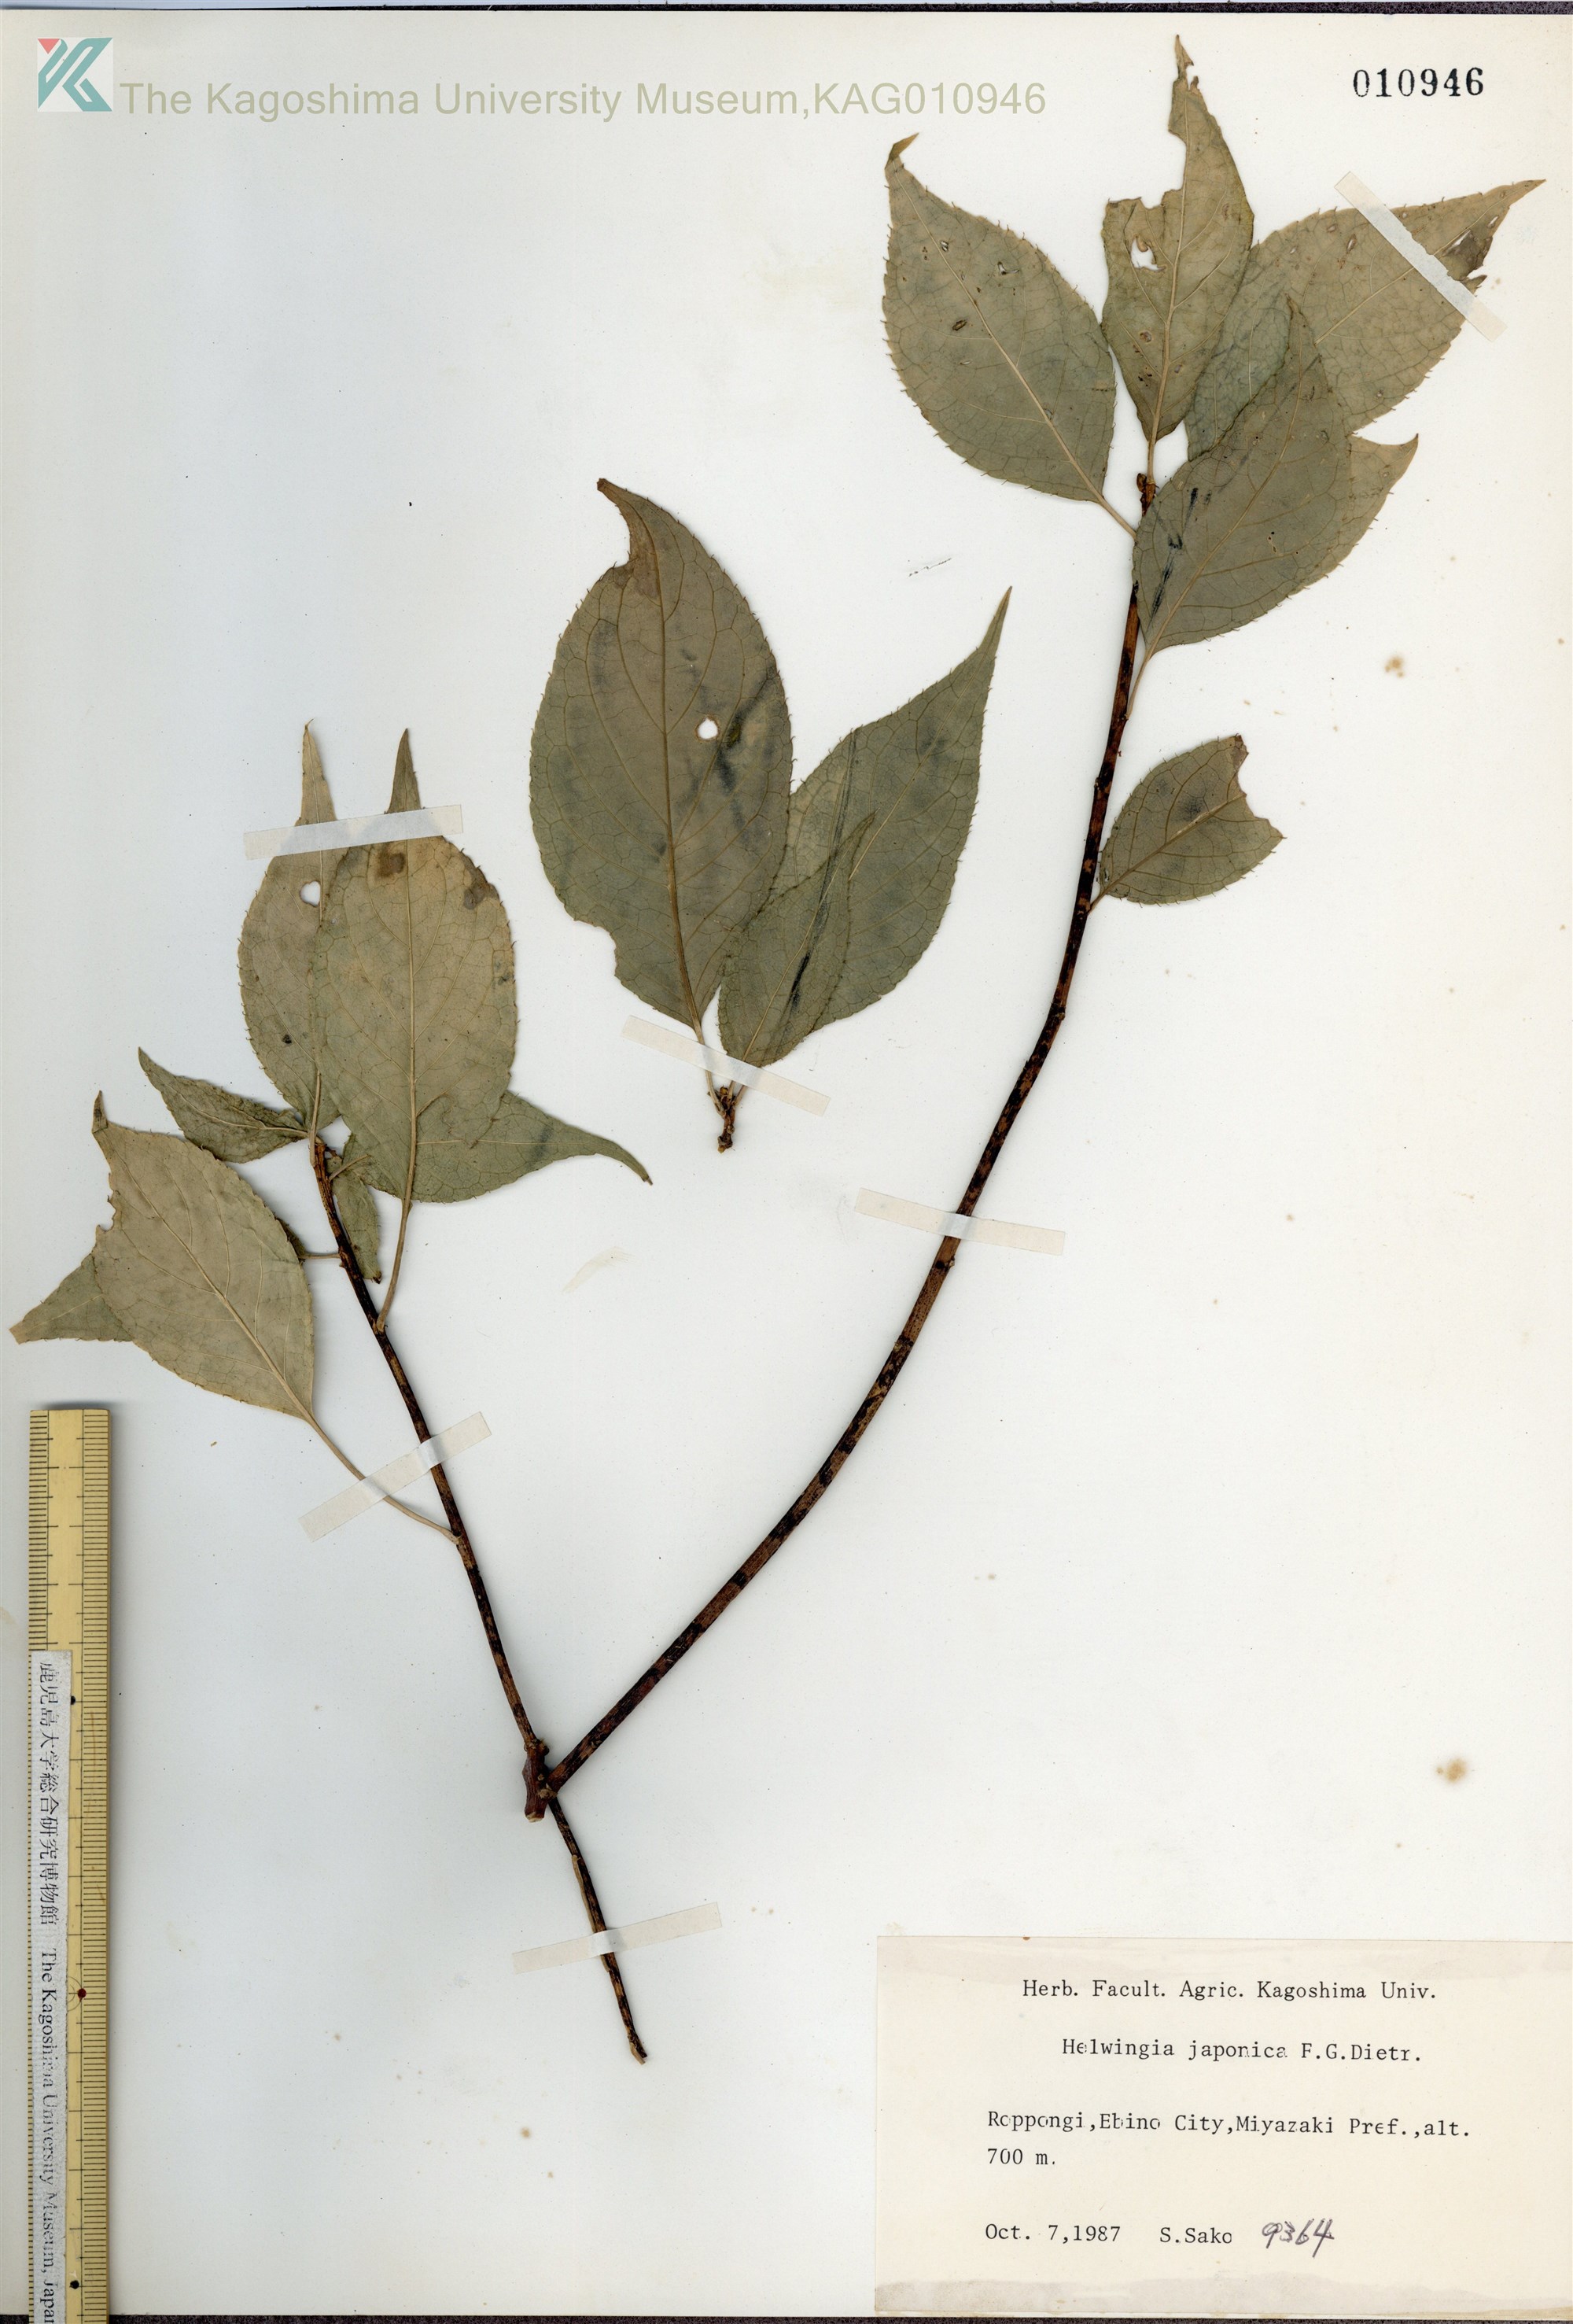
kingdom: Plantae
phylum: Tracheophyta
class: Magnoliopsida
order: Aquifoliales
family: Helwingiaceae
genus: Helwingia
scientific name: Helwingia japonica
